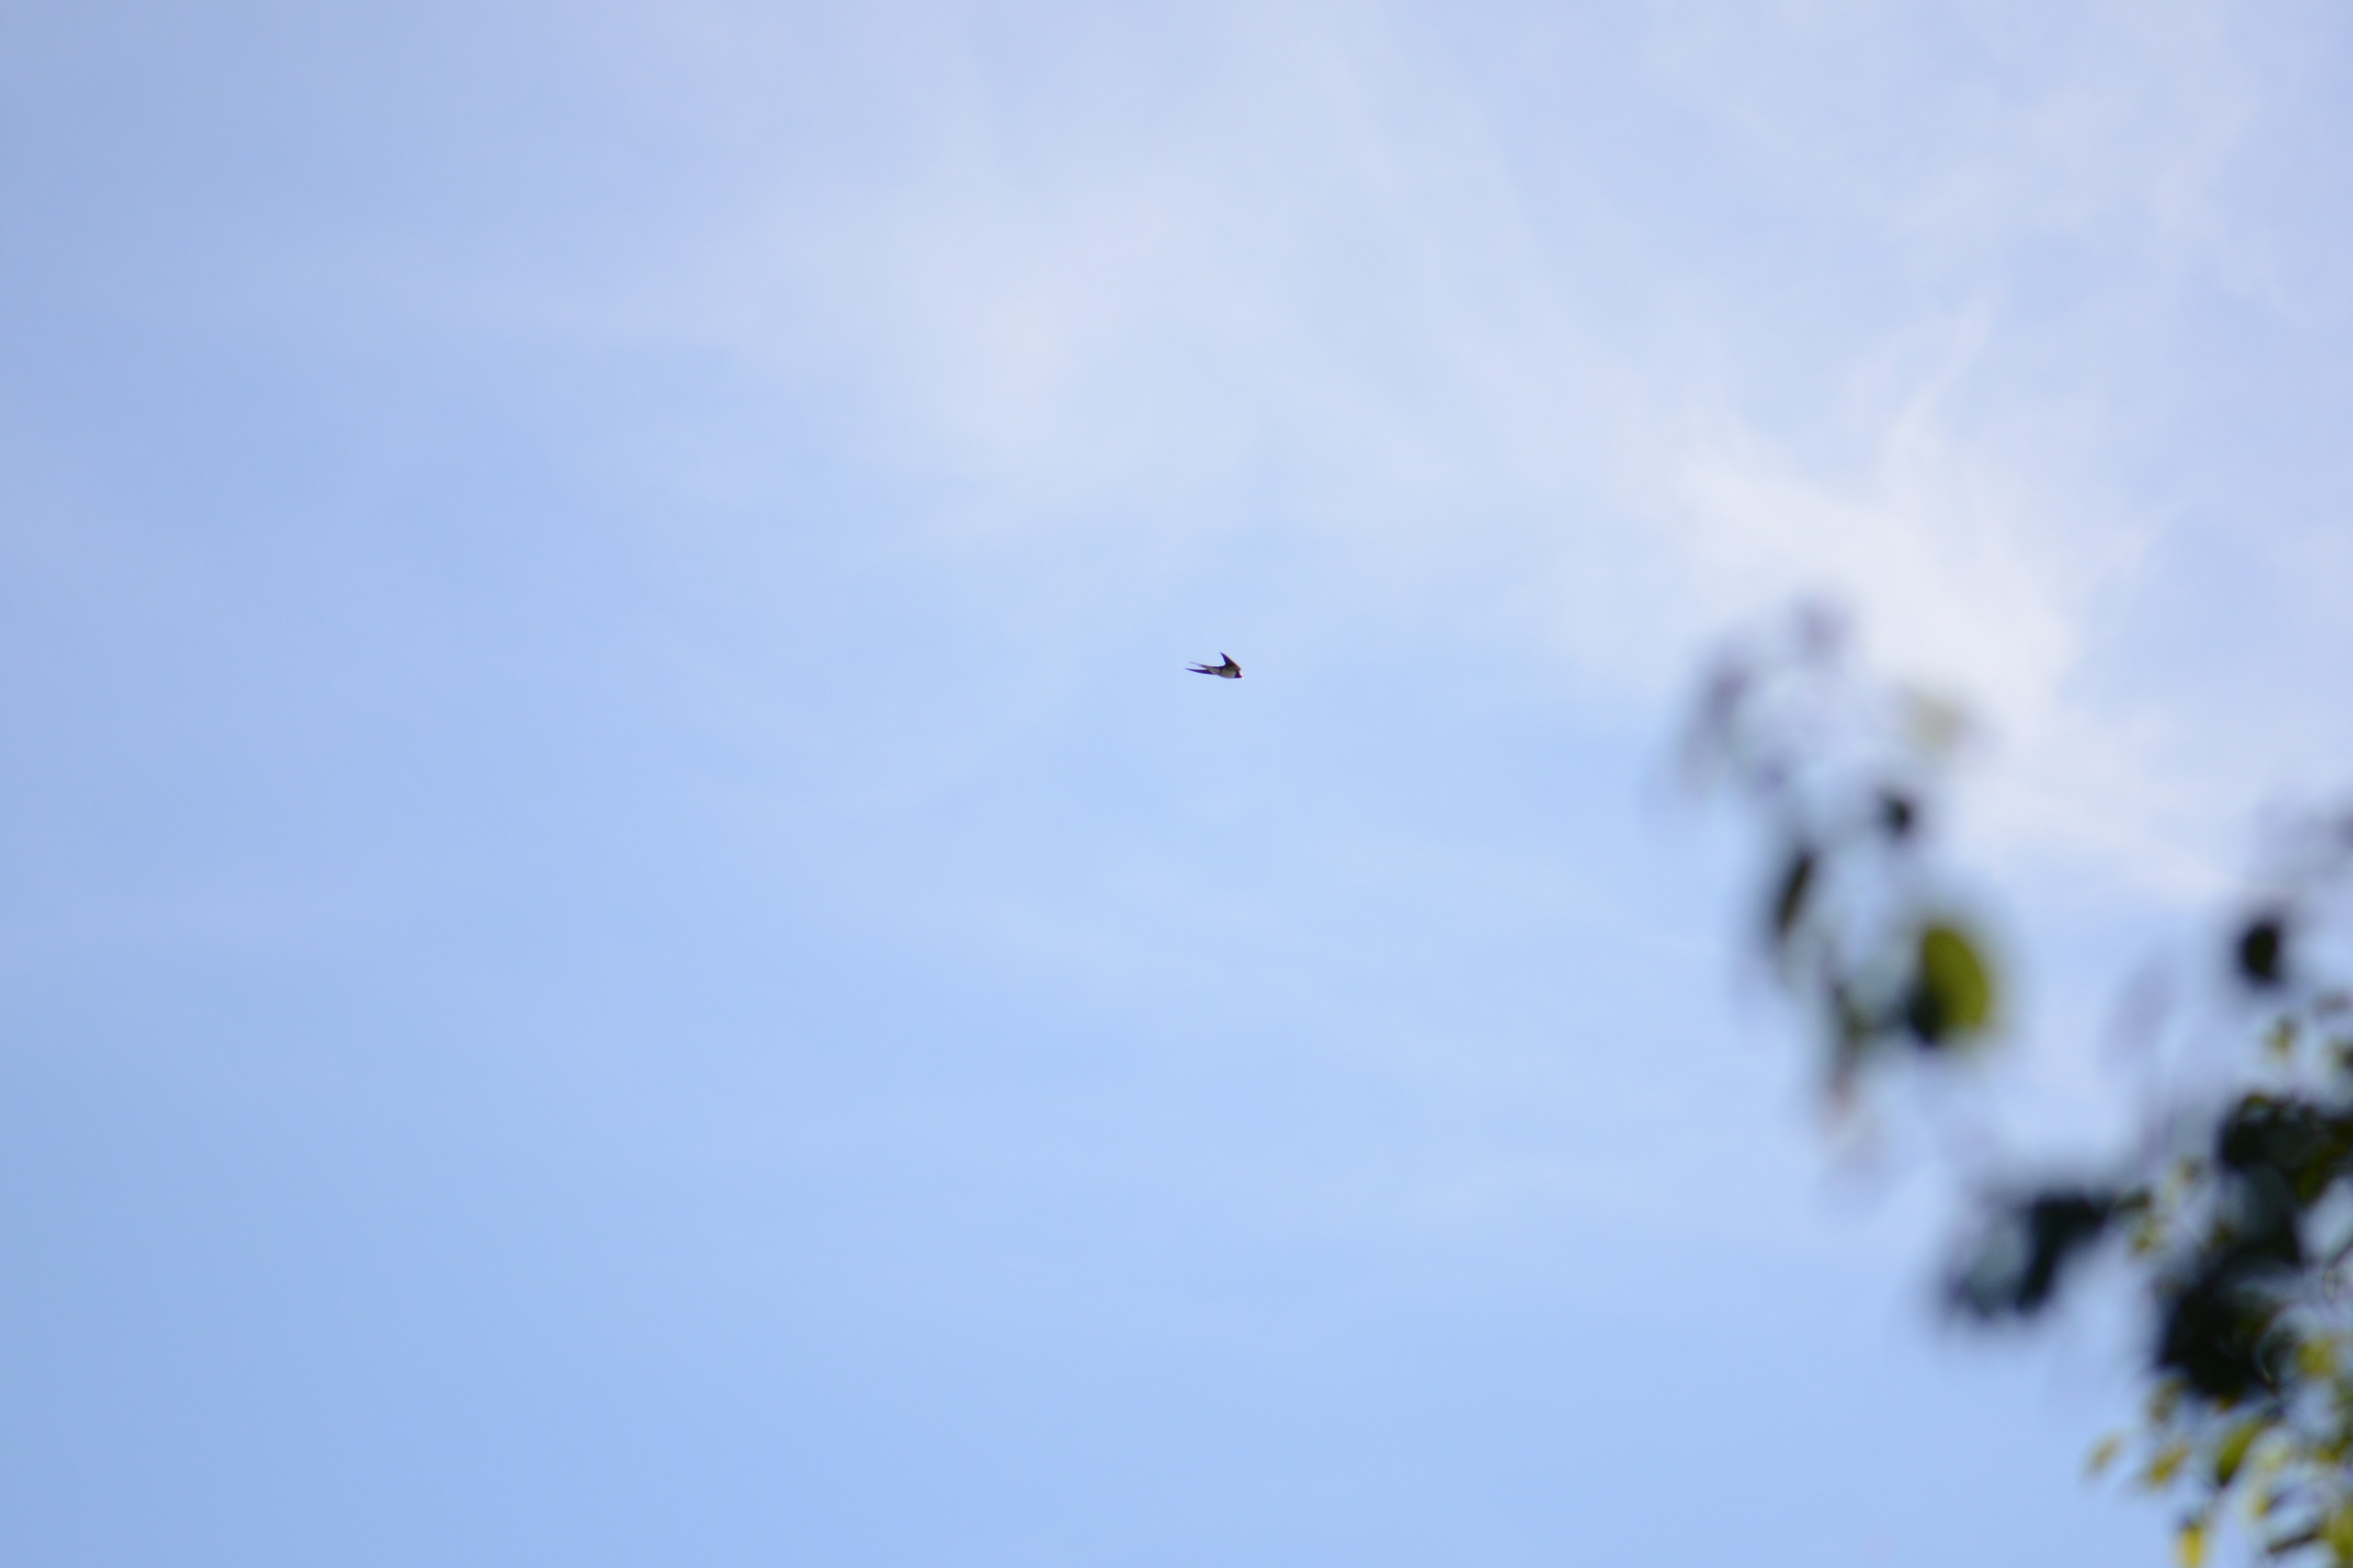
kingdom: Animalia
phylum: Chordata
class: Aves
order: Passeriformes
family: Hirundinidae
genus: Hirundo
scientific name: Hirundo rustica
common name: Landsvale
